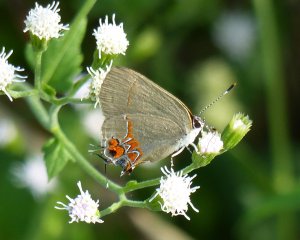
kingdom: Animalia
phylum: Arthropoda
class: Insecta
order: Lepidoptera
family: Lycaenidae
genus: Calycopis
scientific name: Calycopis isobeon
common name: Dusky-blue Groundstreak
